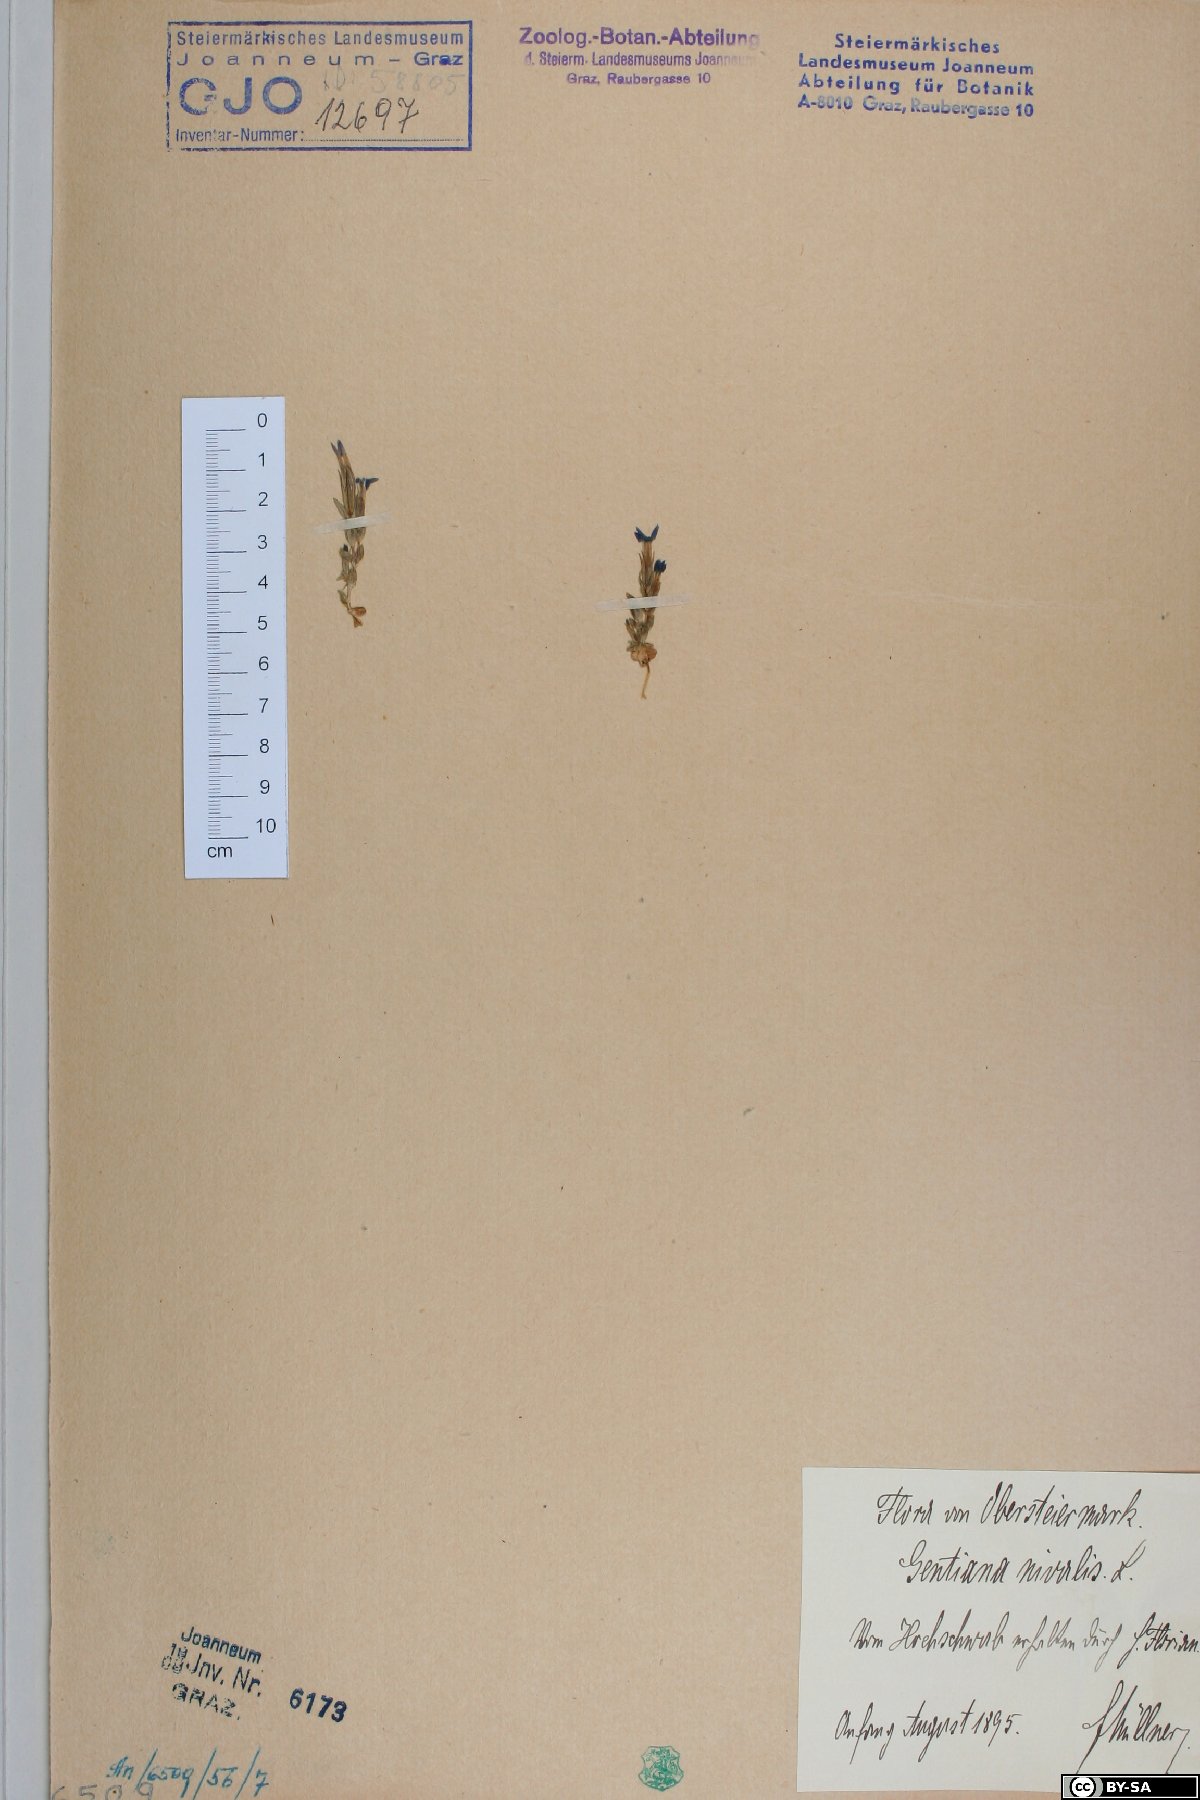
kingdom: Plantae
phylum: Tracheophyta
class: Magnoliopsida
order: Gentianales
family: Gentianaceae
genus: Gentiana
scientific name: Gentiana nivalis
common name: Alpine gentian
